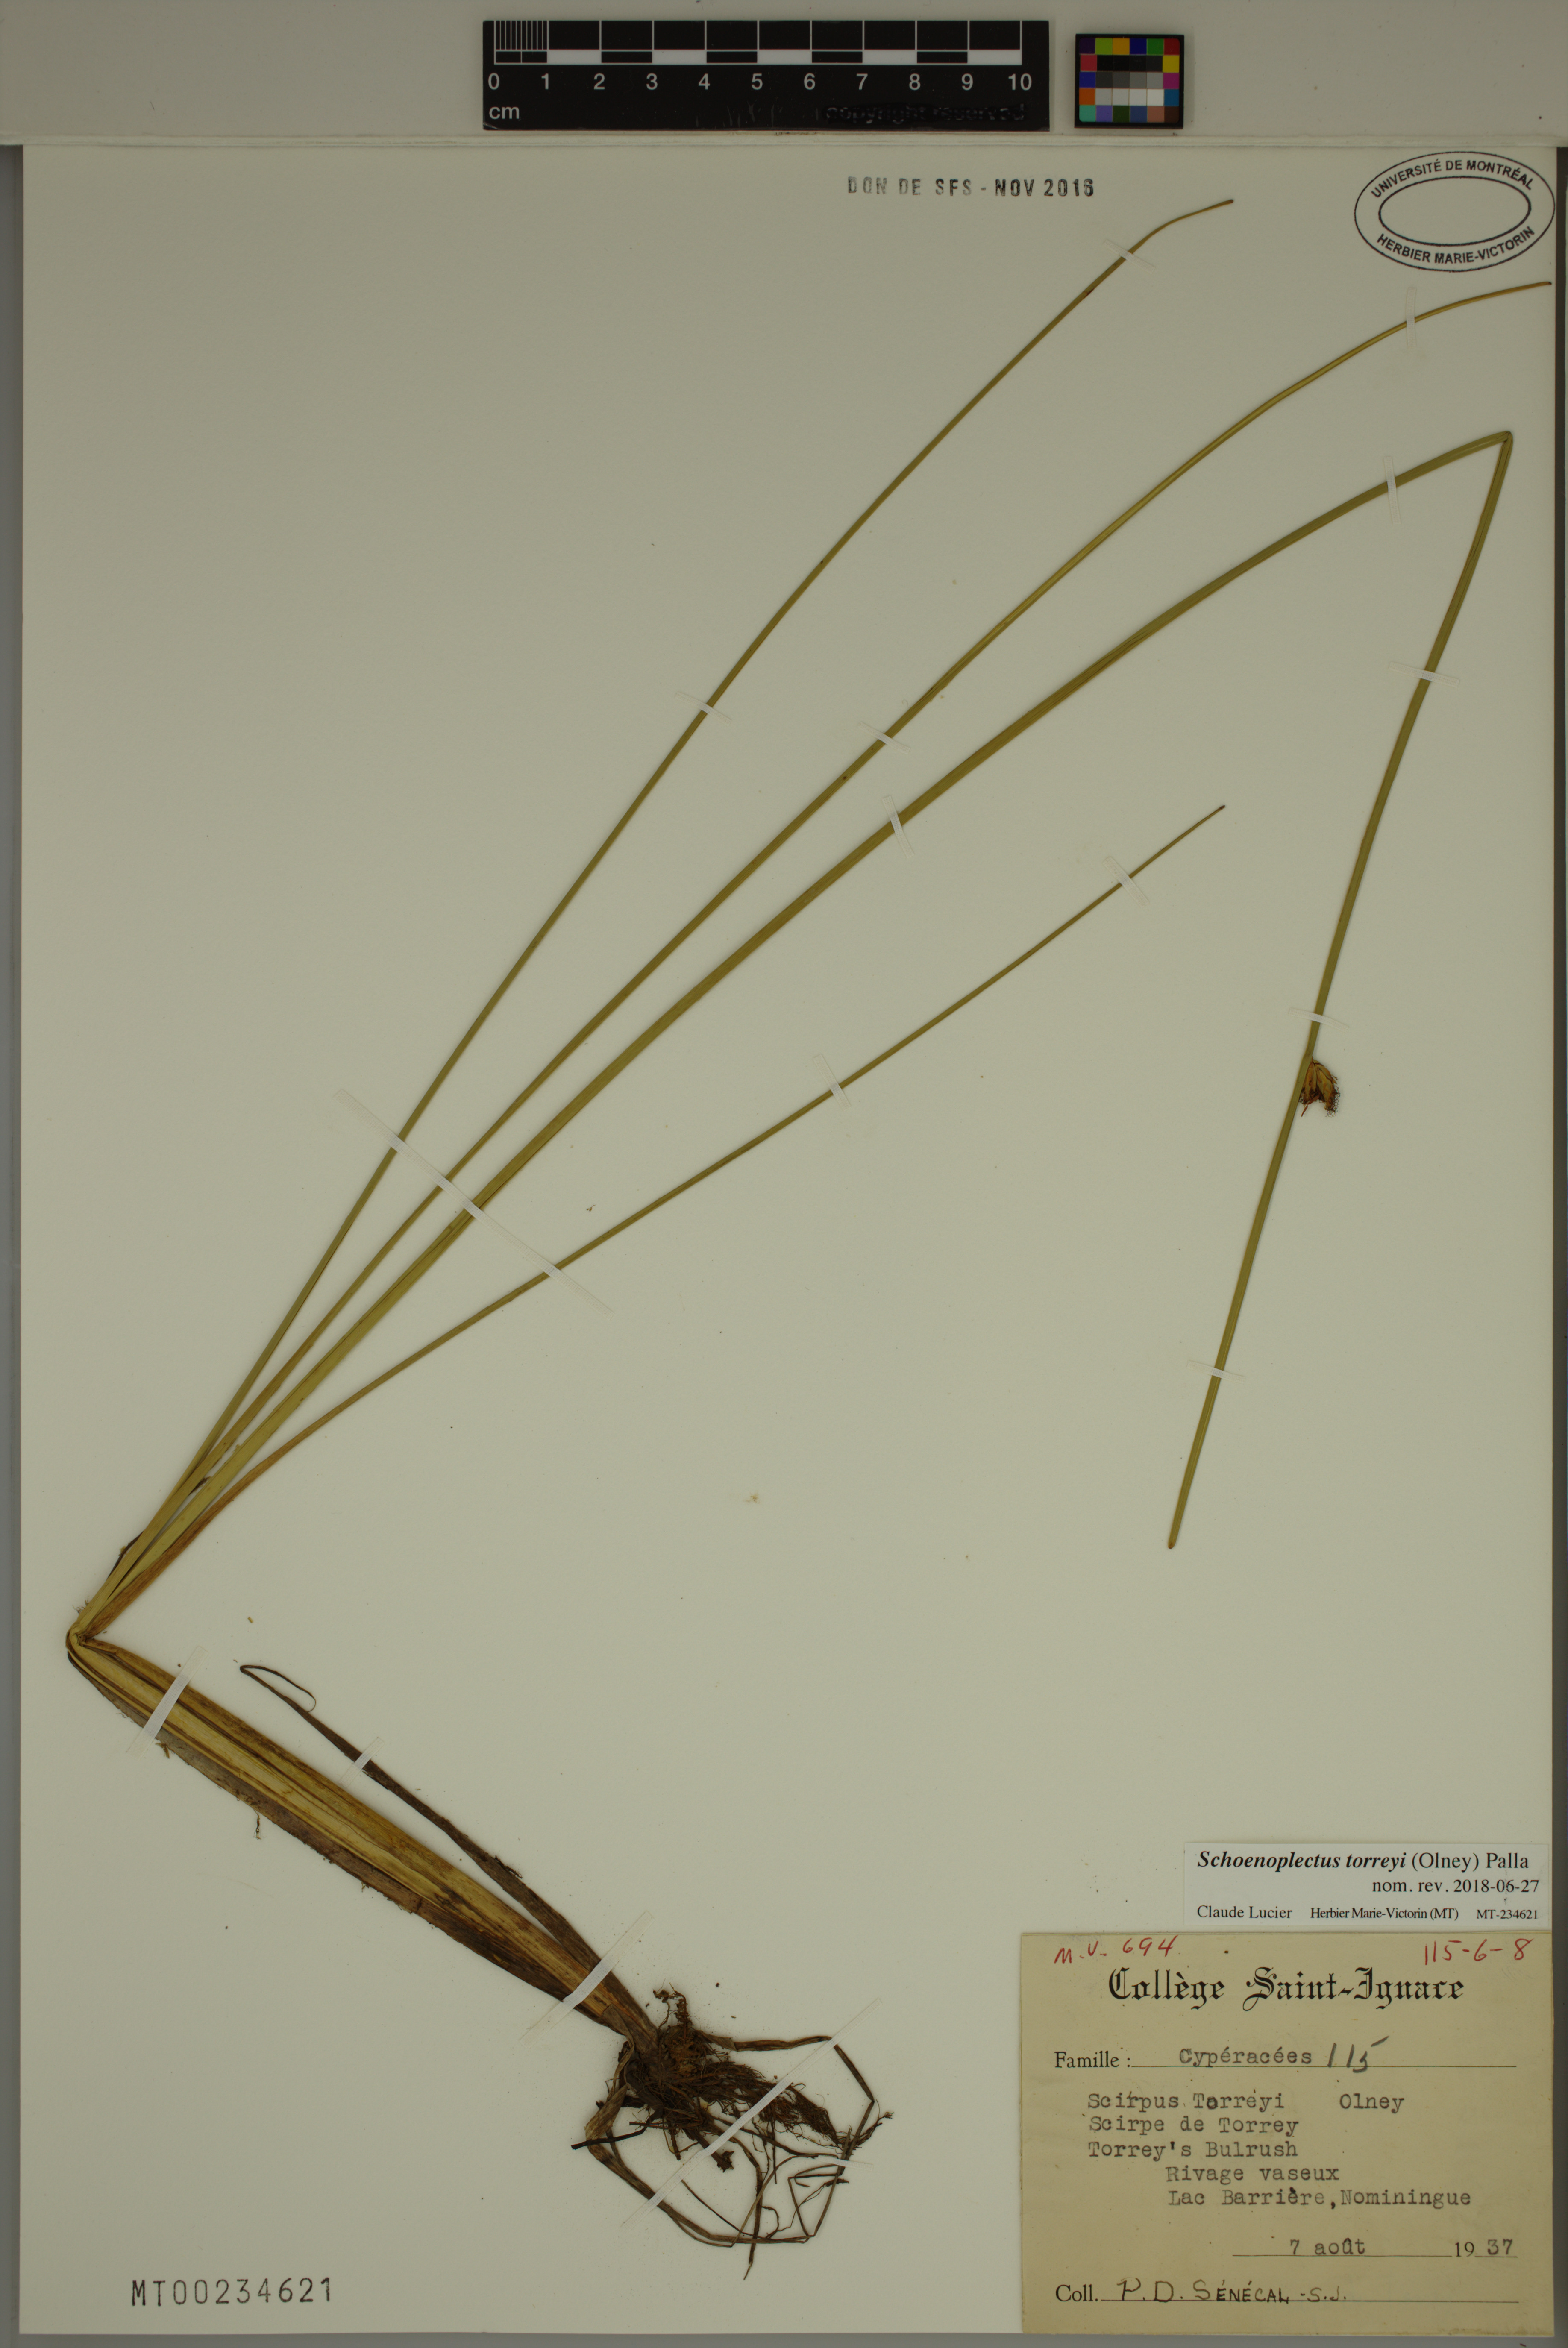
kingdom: Plantae
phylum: Tracheophyta
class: Liliopsida
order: Poales
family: Cyperaceae
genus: Schoenoplectus
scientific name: Schoenoplectus torreyi
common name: Torrey's bulrush
